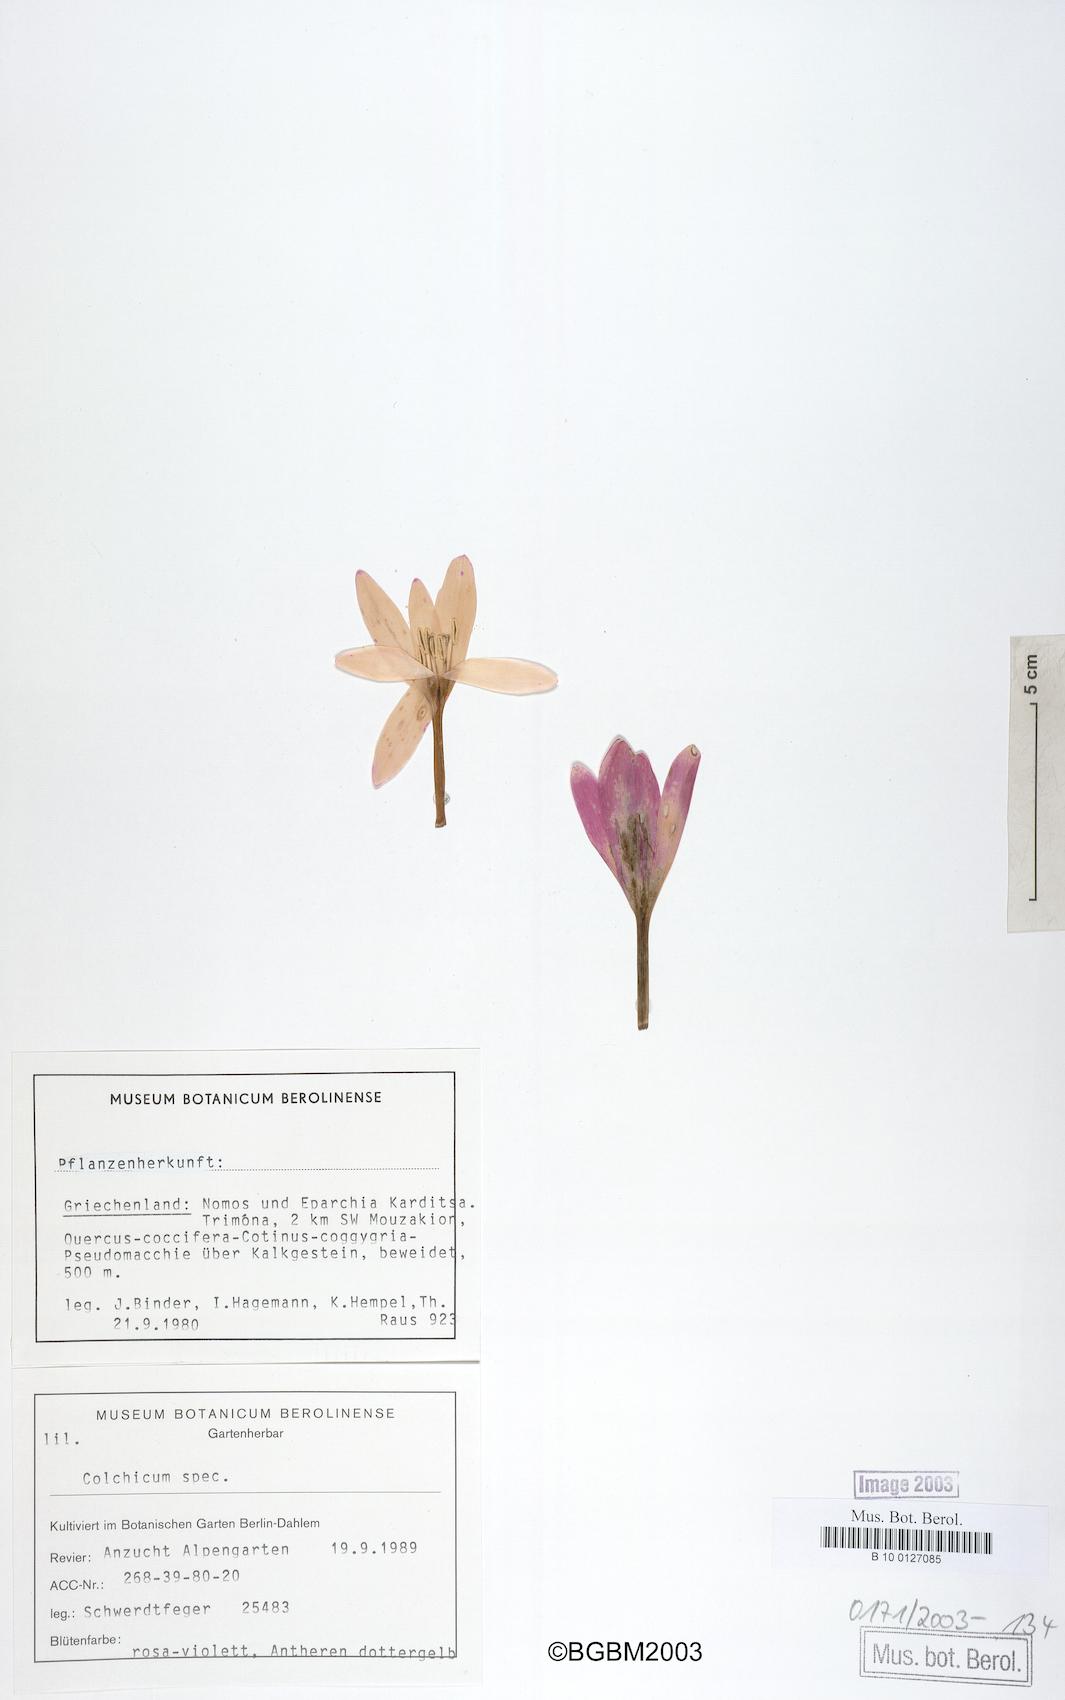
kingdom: Plantae
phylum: Tracheophyta
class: Liliopsida
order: Liliales
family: Colchicaceae
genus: Colchicum
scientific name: Colchicum
